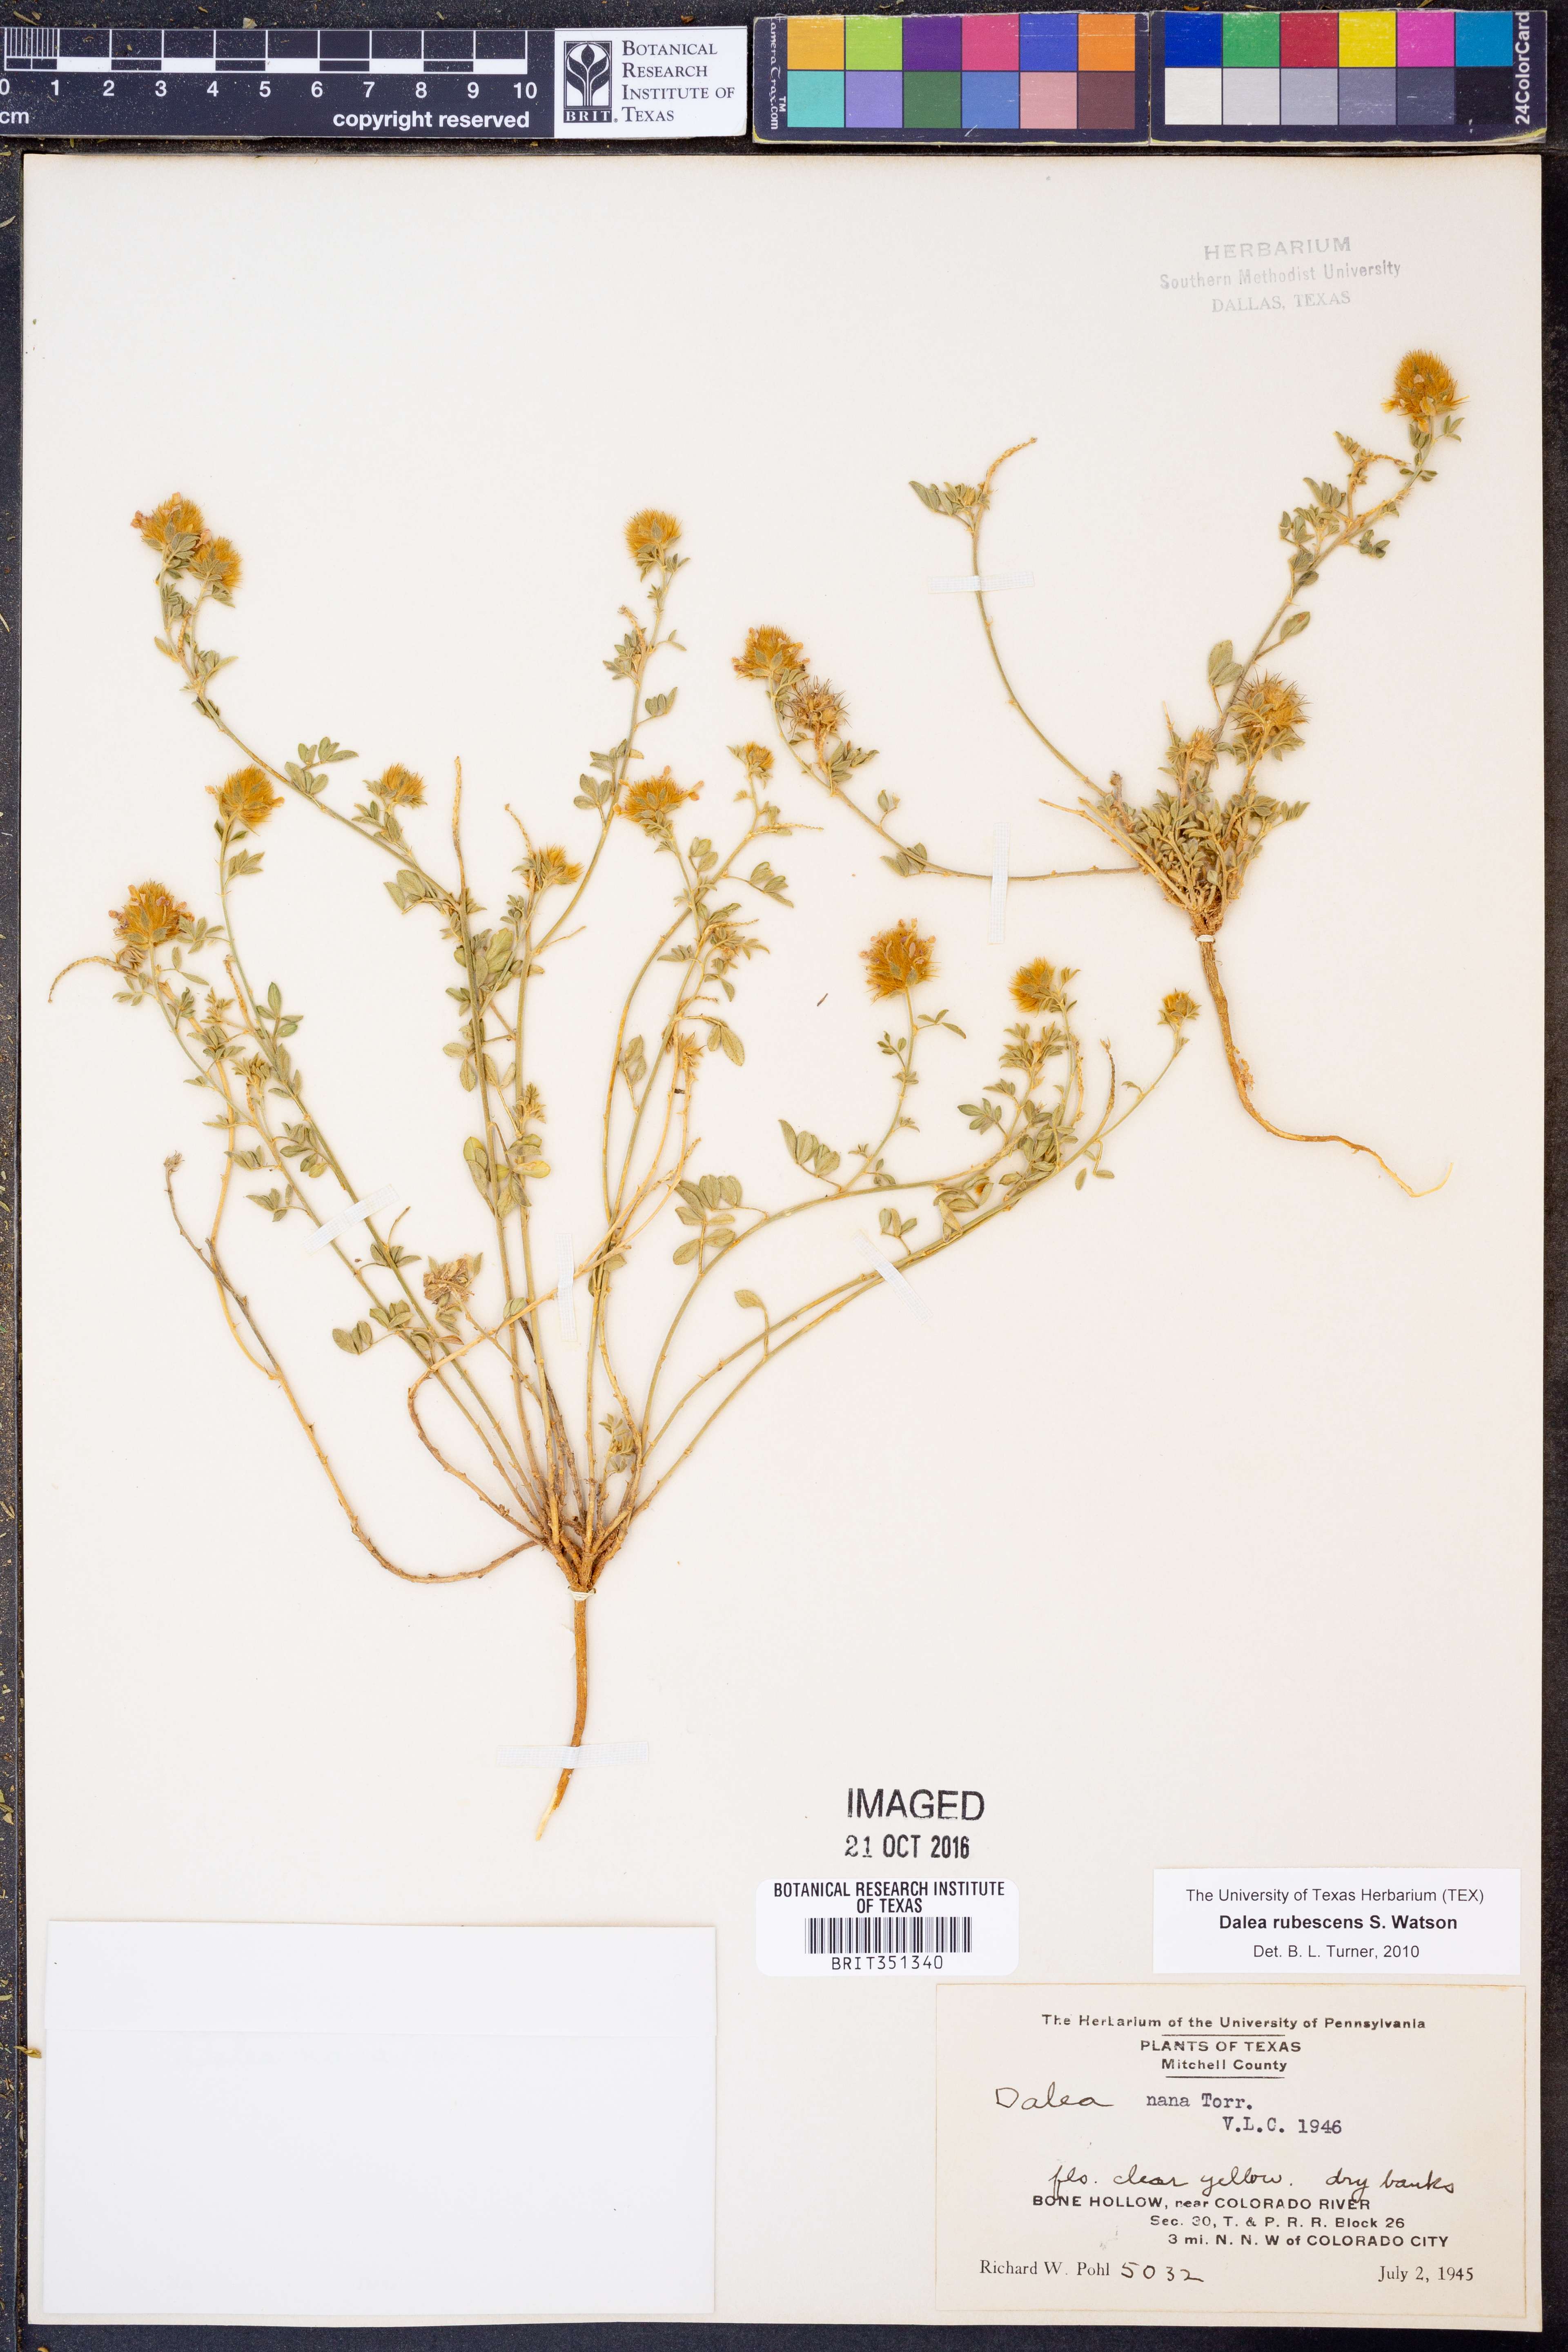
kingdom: Plantae
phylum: Tracheophyta
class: Magnoliopsida
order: Fabales
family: Fabaceae
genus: Dalea
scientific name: Dalea rubescens
